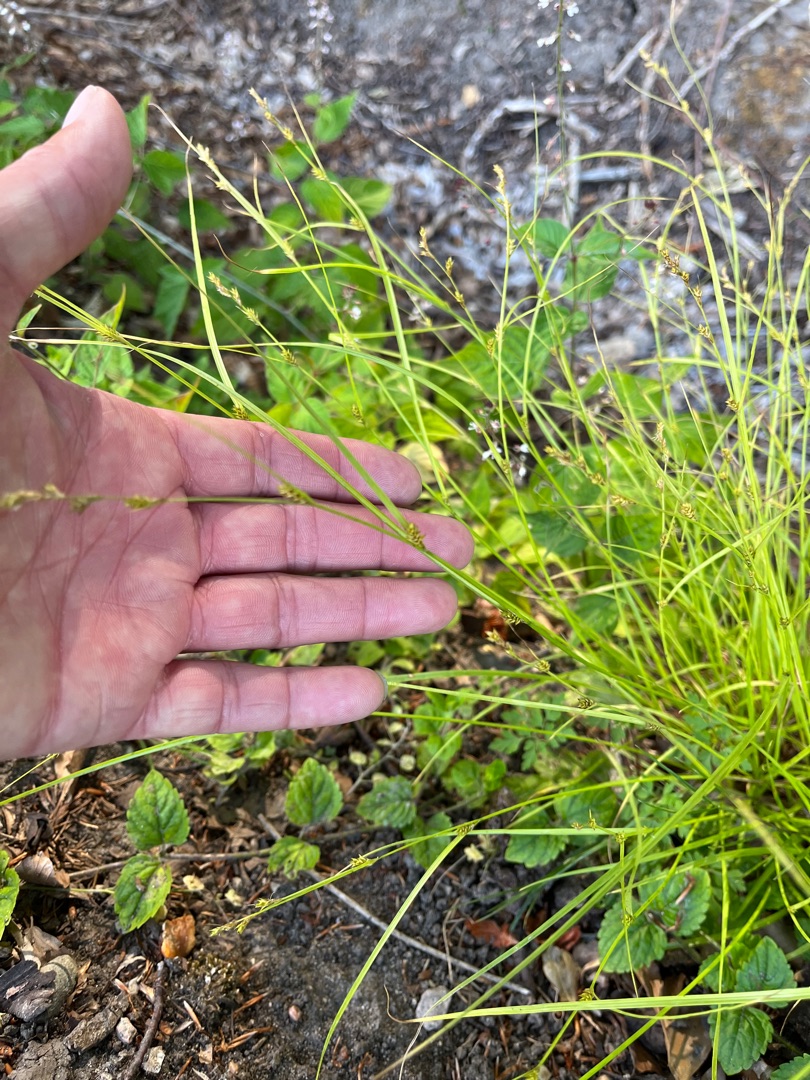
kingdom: Plantae
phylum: Tracheophyta
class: Liliopsida
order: Poales
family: Cyperaceae
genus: Carex
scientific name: Carex remota
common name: Akselblomstret star
